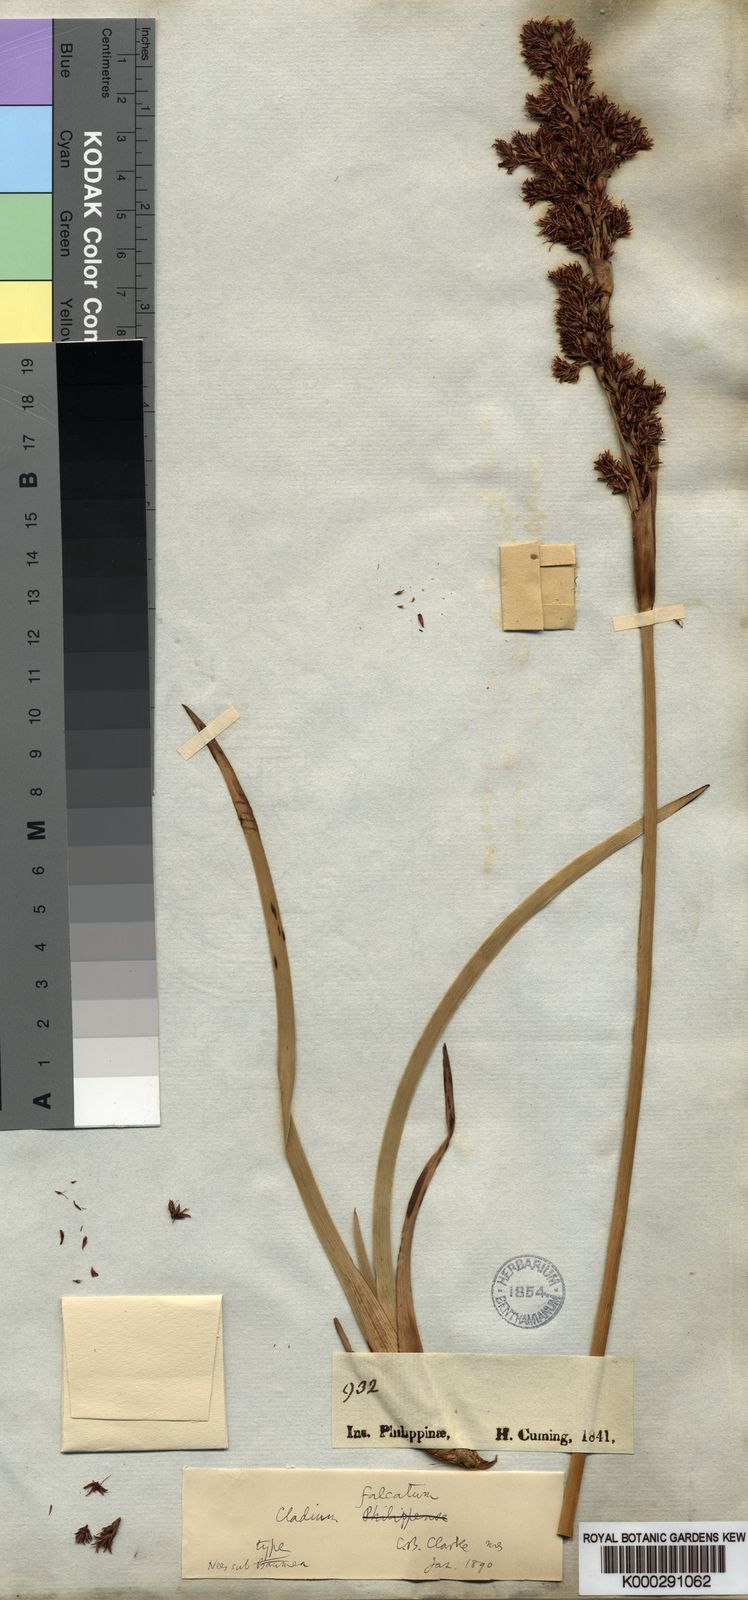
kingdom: Plantae
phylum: Tracheophyta
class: Liliopsida
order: Poales
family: Cyperaceae
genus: Machaerina
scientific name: Machaerina falcata
